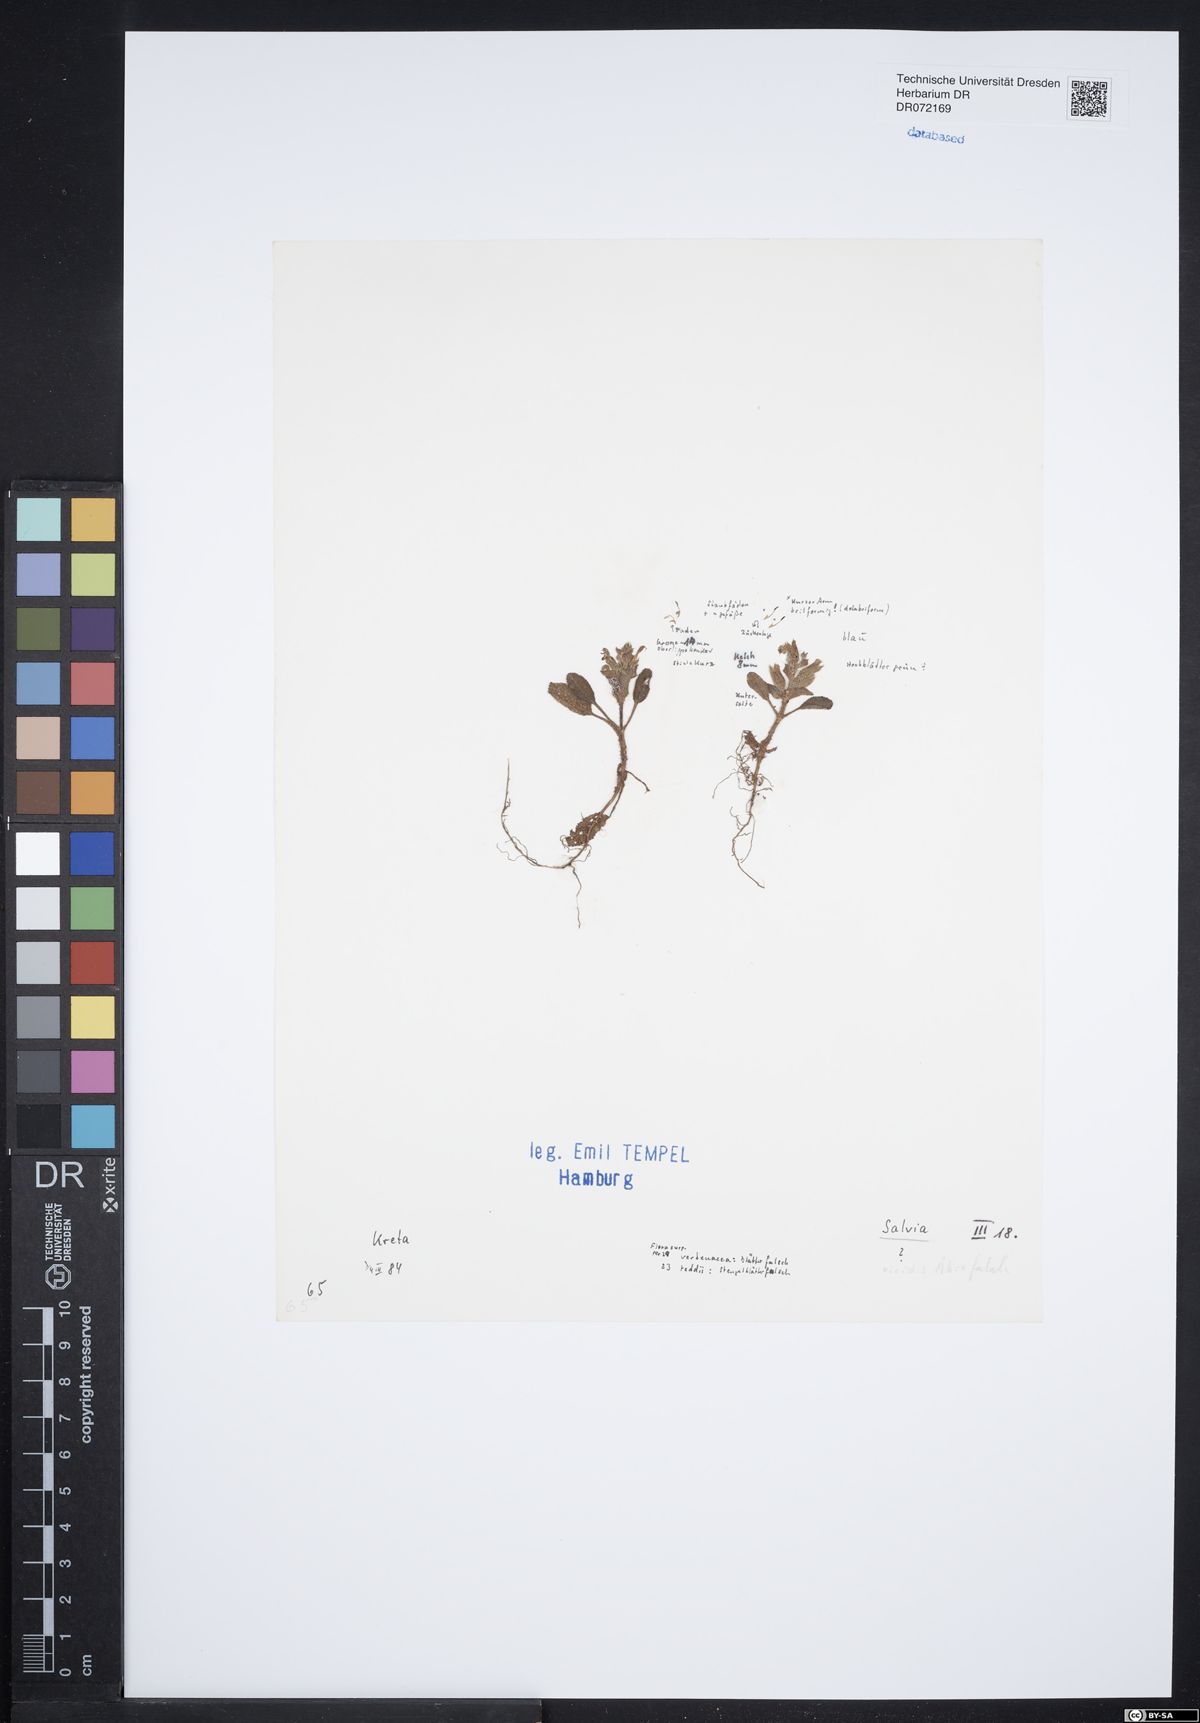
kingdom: Plantae
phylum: Tracheophyta
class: Magnoliopsida
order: Lamiales
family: Lamiaceae
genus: Salvia
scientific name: Salvia
